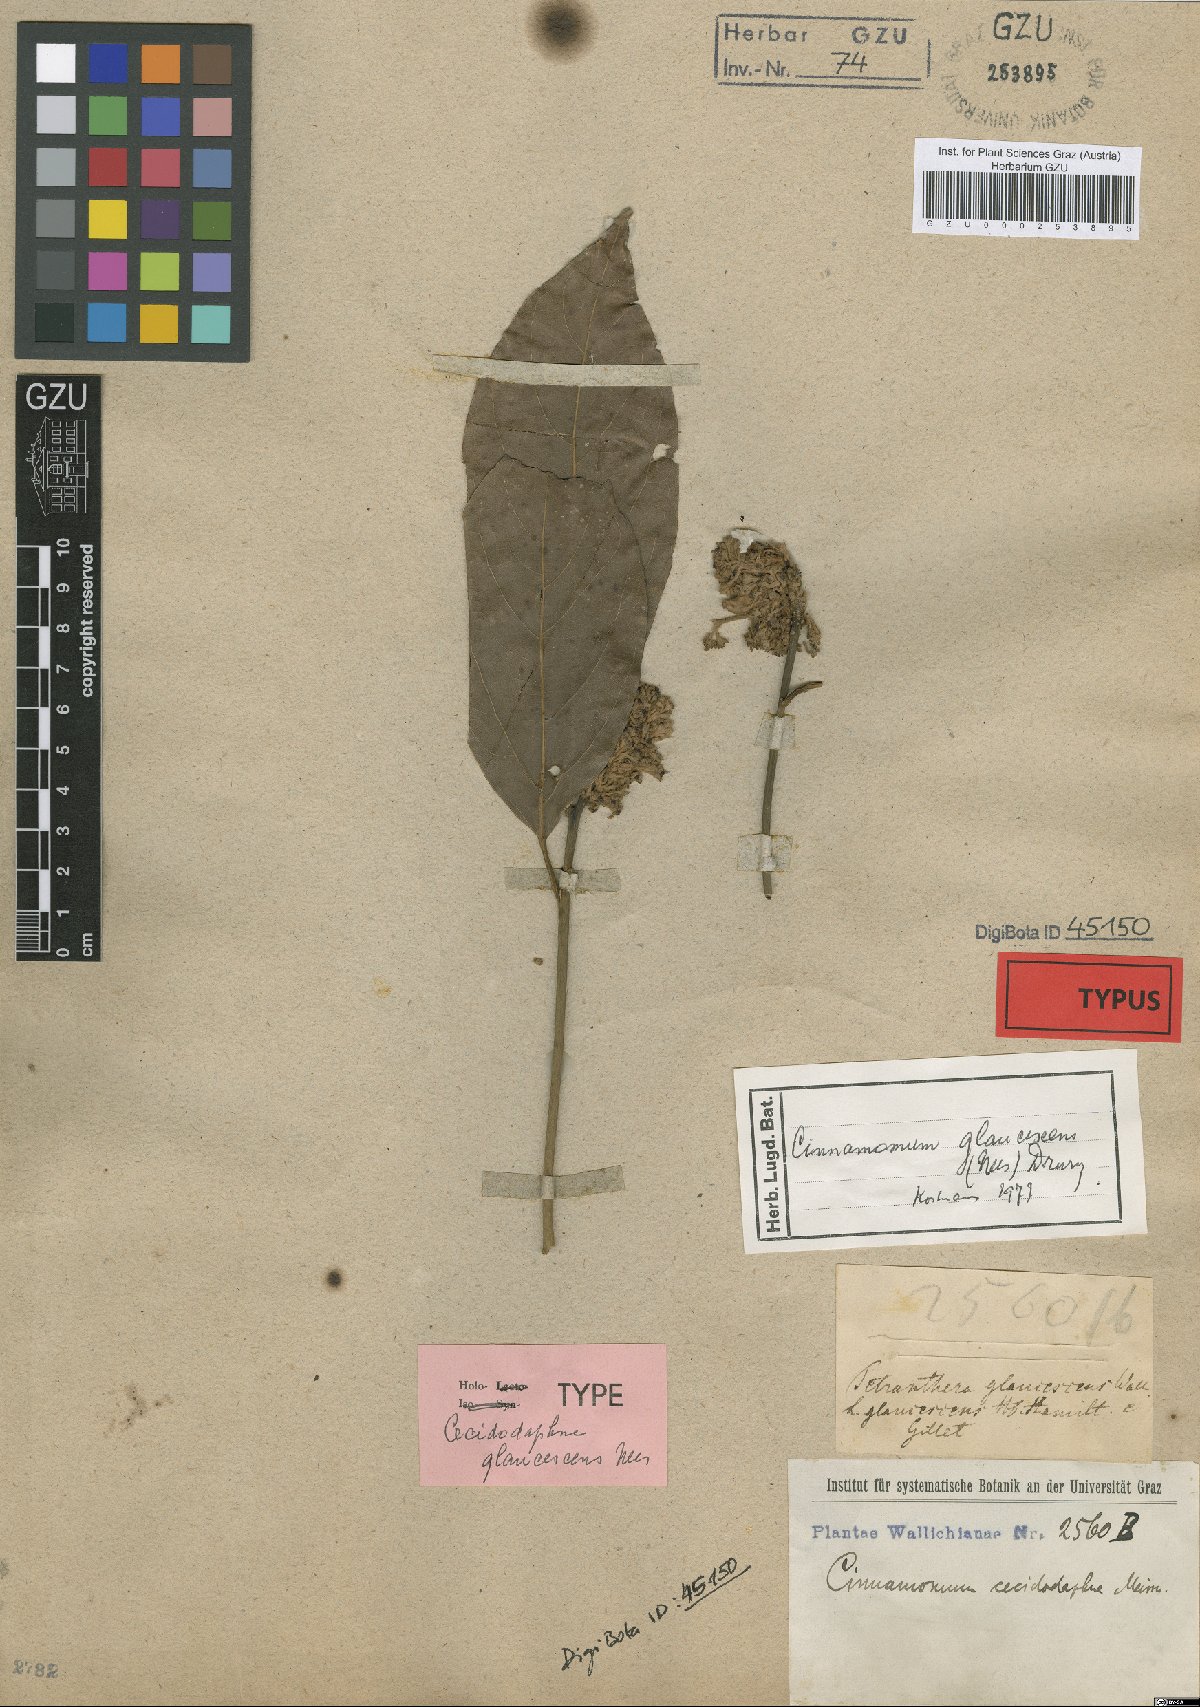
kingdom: Plantae
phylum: Tracheophyta
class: Magnoliopsida
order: Laurales
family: Lauraceae
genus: Cinnamomum
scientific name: Cinnamomum glaucescens
